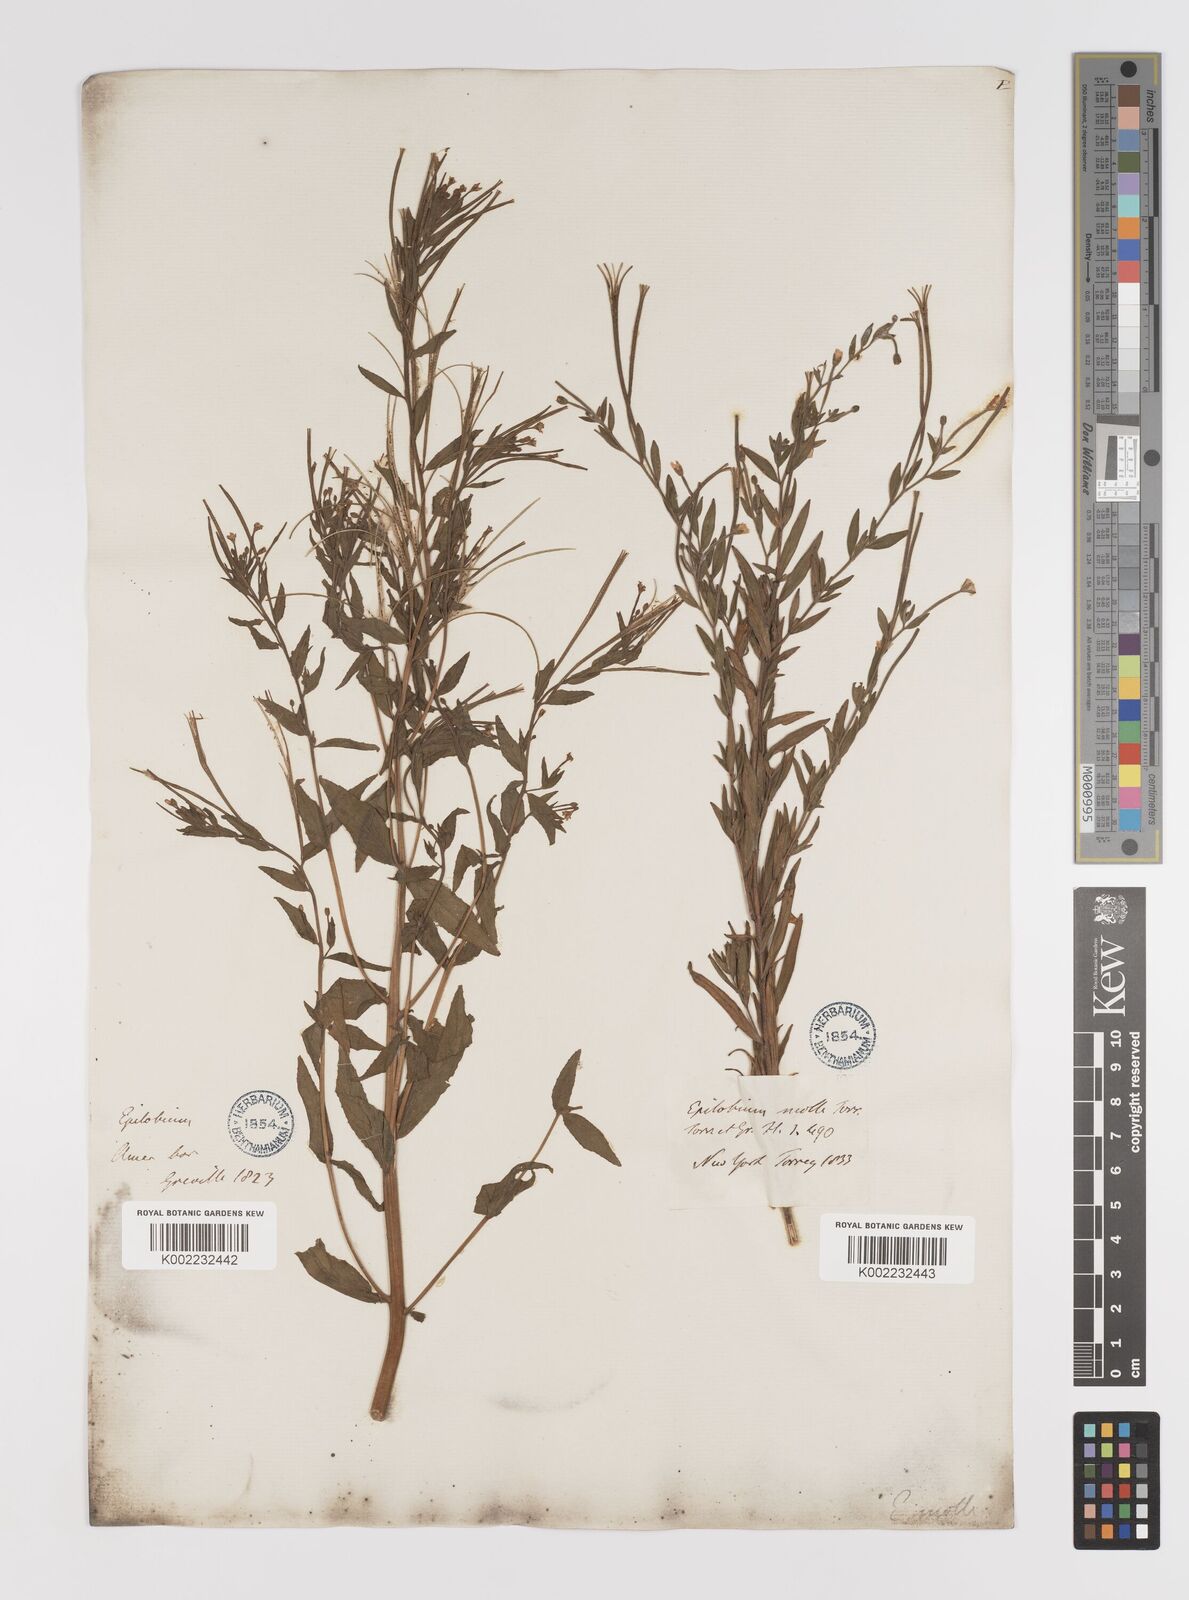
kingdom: Plantae
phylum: Tracheophyta
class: Magnoliopsida
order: Myrtales
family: Onagraceae
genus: Epilobium
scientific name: Epilobium densum
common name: Downy willowherb
